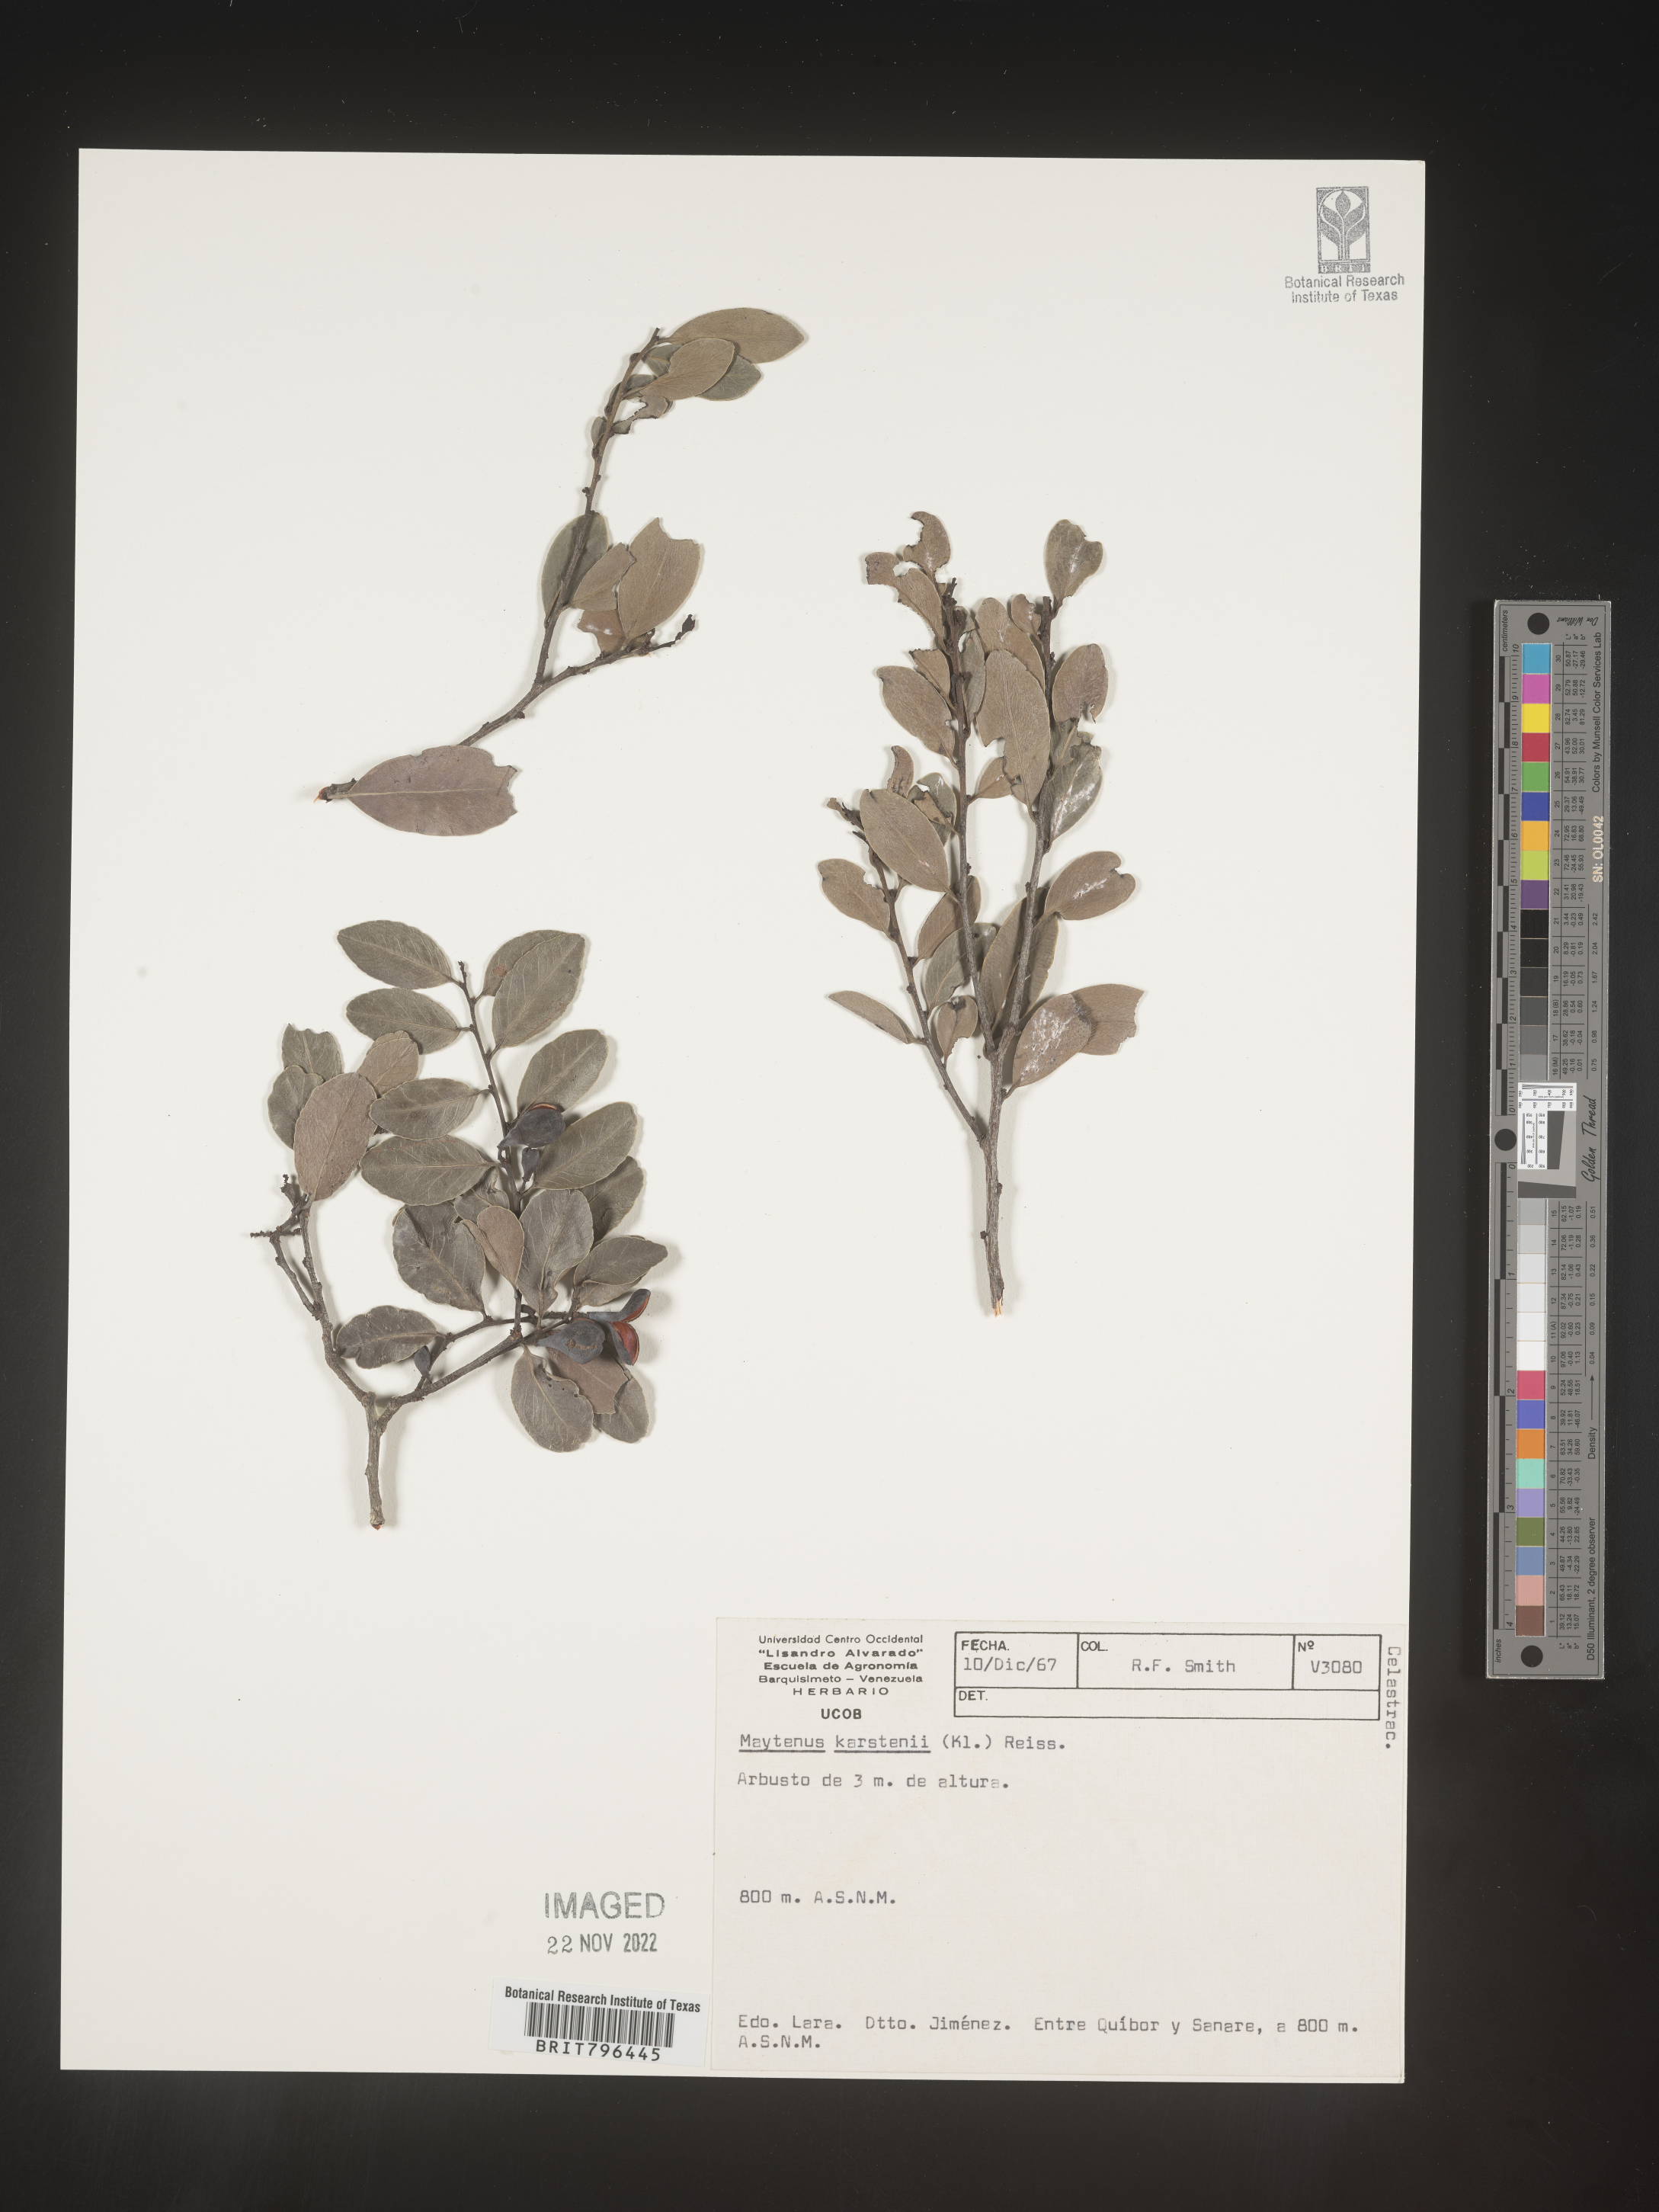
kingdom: Plantae
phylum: Tracheophyta
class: Magnoliopsida
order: Celastrales
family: Celastraceae
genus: Maytenus
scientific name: Maytenus
